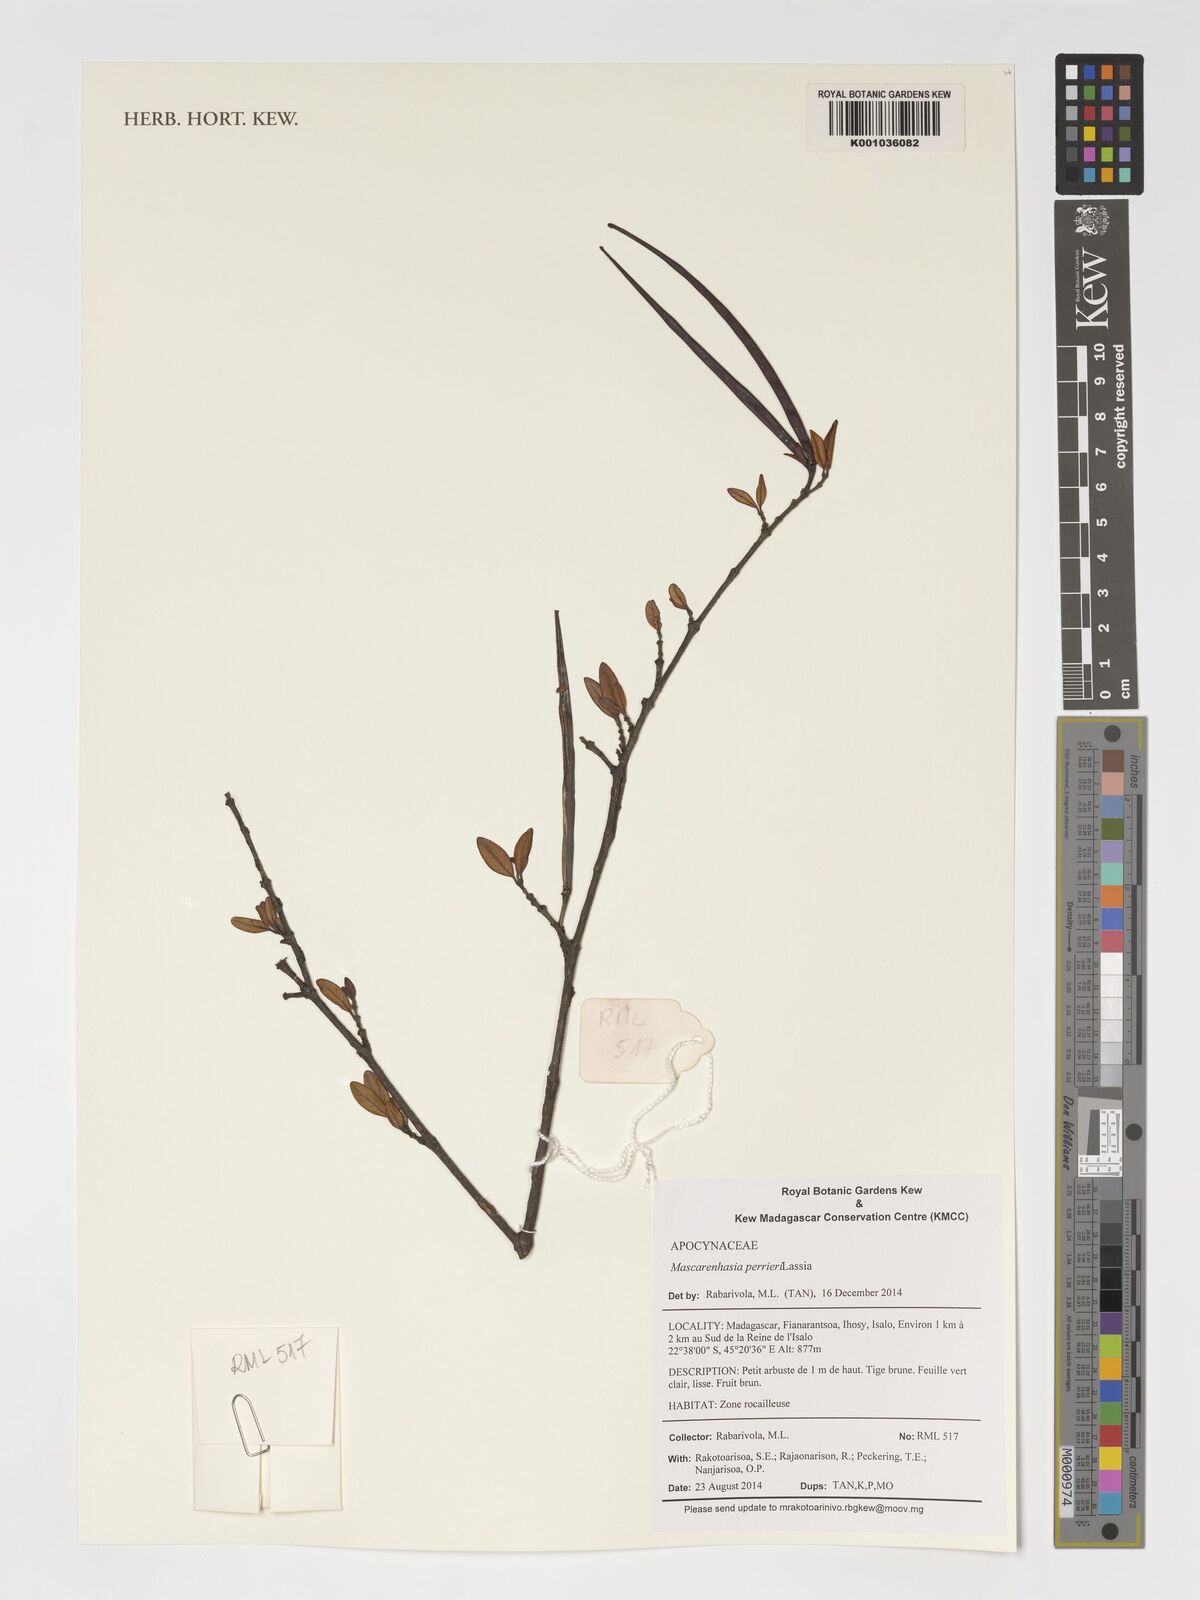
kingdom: Plantae
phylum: Tracheophyta
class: Magnoliopsida
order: Gentianales
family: Apocynaceae
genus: Mascarenhasia
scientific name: Mascarenhasia
